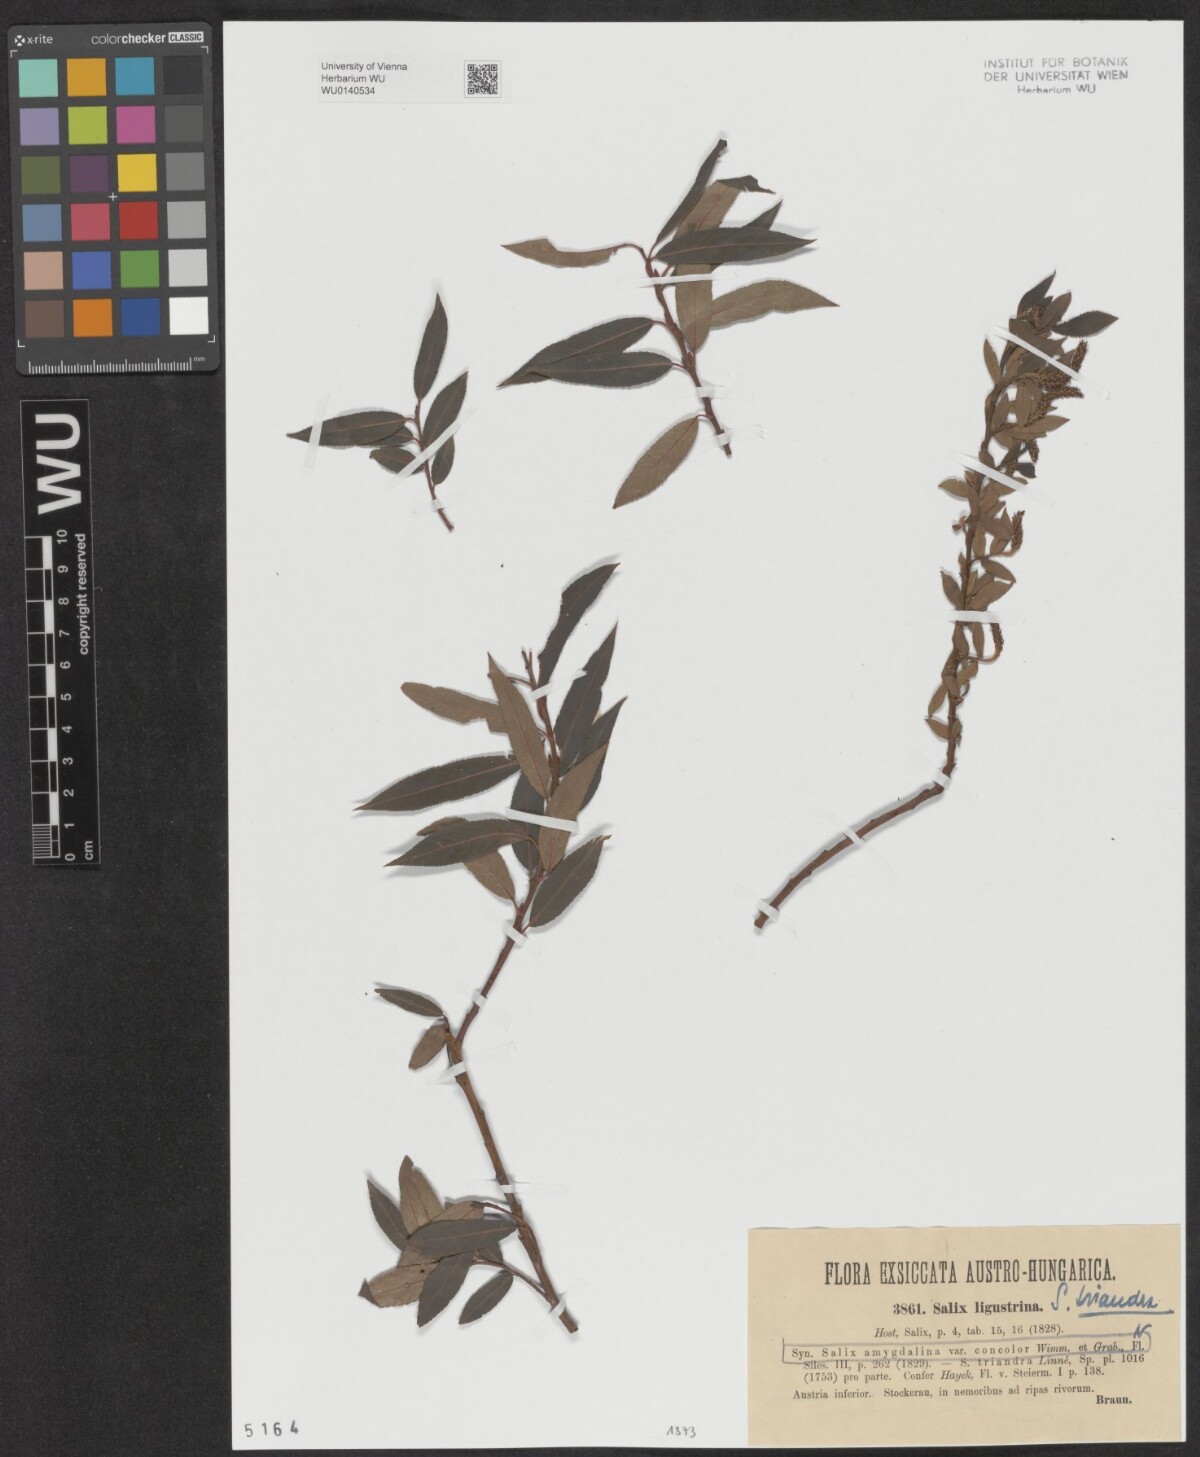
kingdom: Plantae
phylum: Tracheophyta
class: Magnoliopsida
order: Malpighiales
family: Salicaceae
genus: Salix
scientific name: Salix triandra
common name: Almond willow
